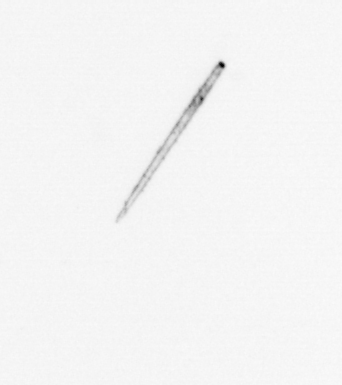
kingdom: Chromista
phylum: Ochrophyta
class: Bacillariophyceae
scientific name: Bacillariophyceae
